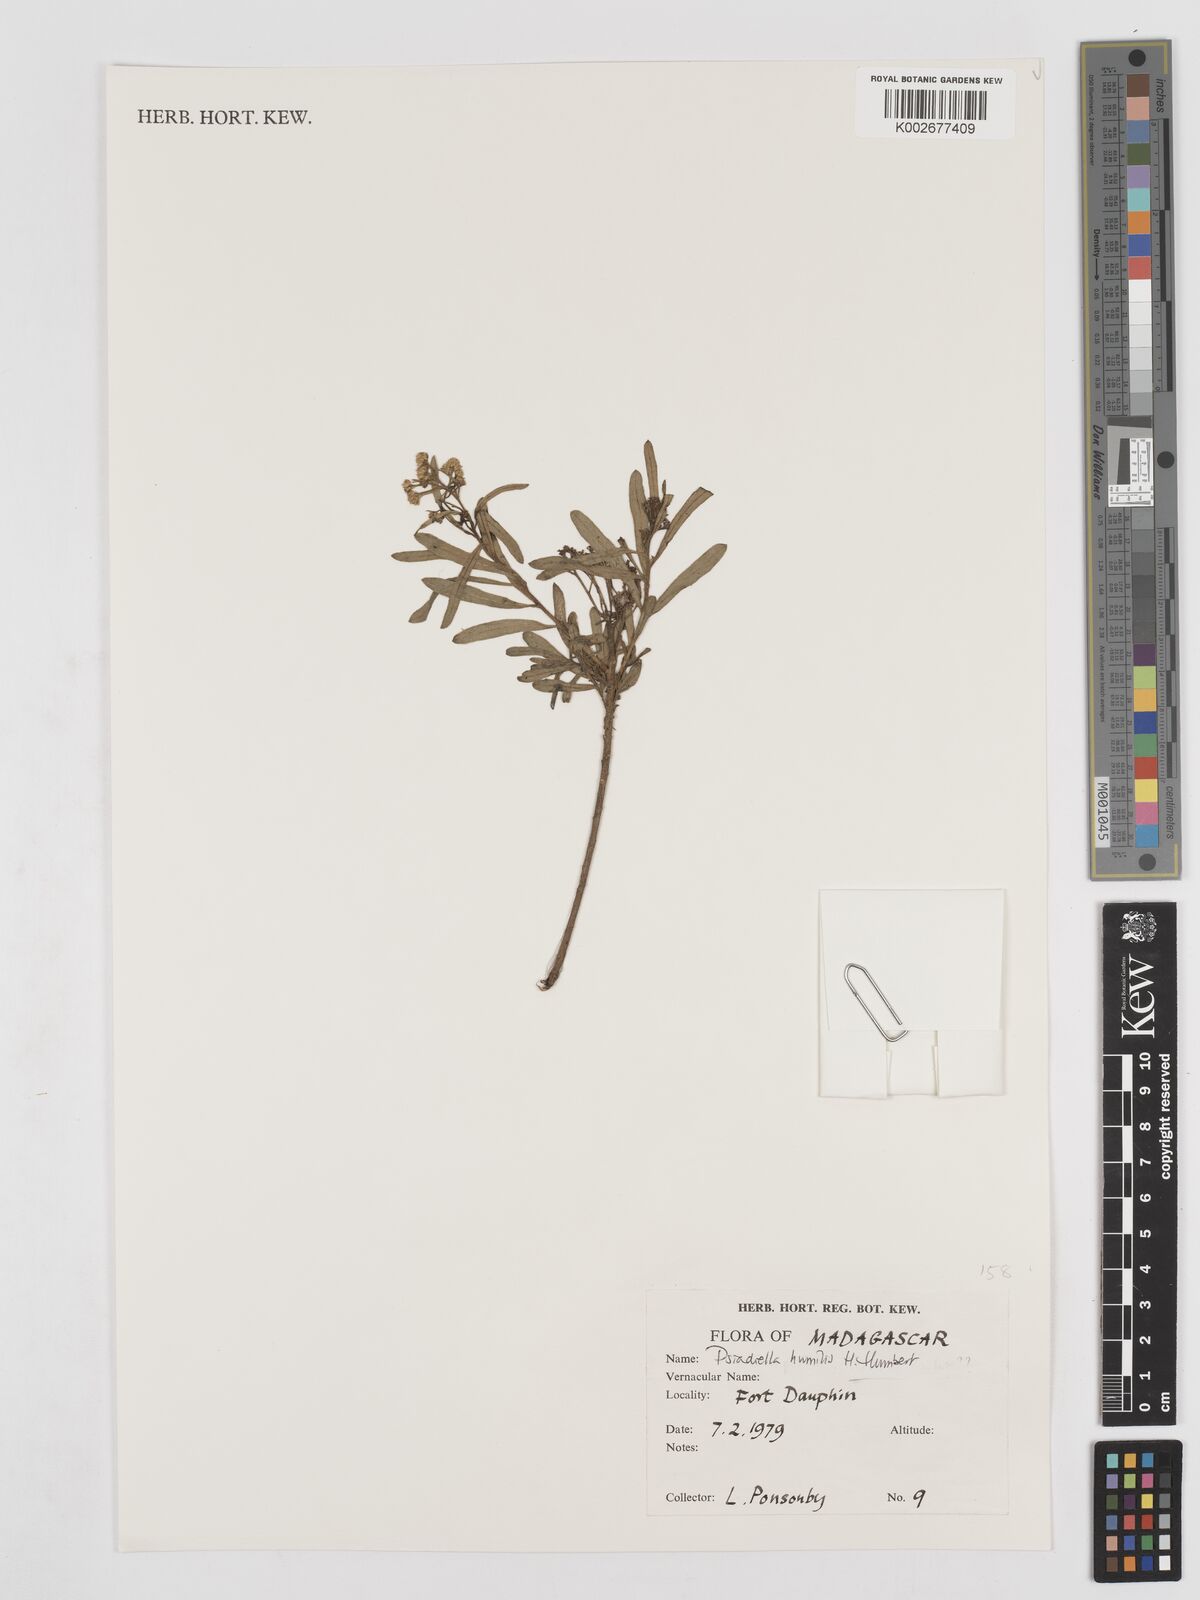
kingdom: Plantae
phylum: Tracheophyta
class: Magnoliopsida
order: Asterales
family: Asteraceae
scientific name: Asteraceae
